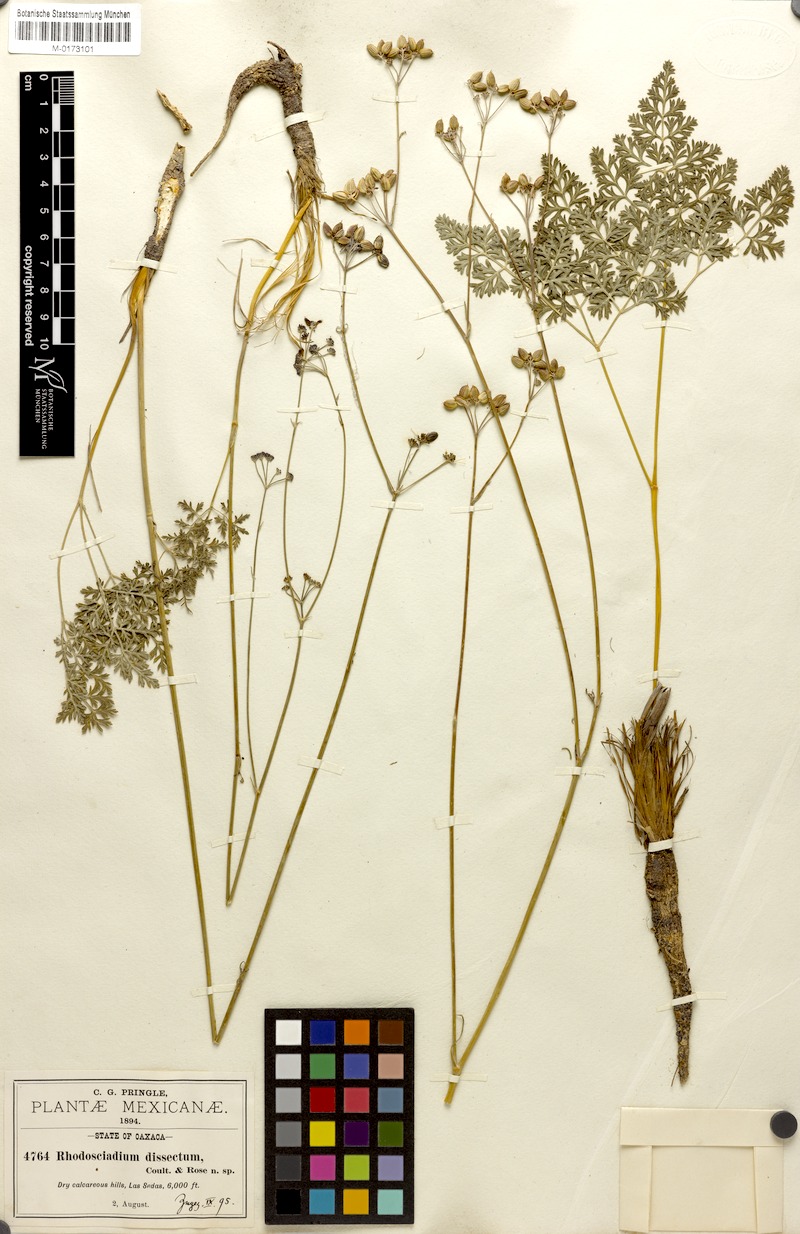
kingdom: Plantae
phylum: Tracheophyta
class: Magnoliopsida
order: Apiales
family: Apiaceae
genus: Rhodosciadium
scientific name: Rhodosciadium dissectum
